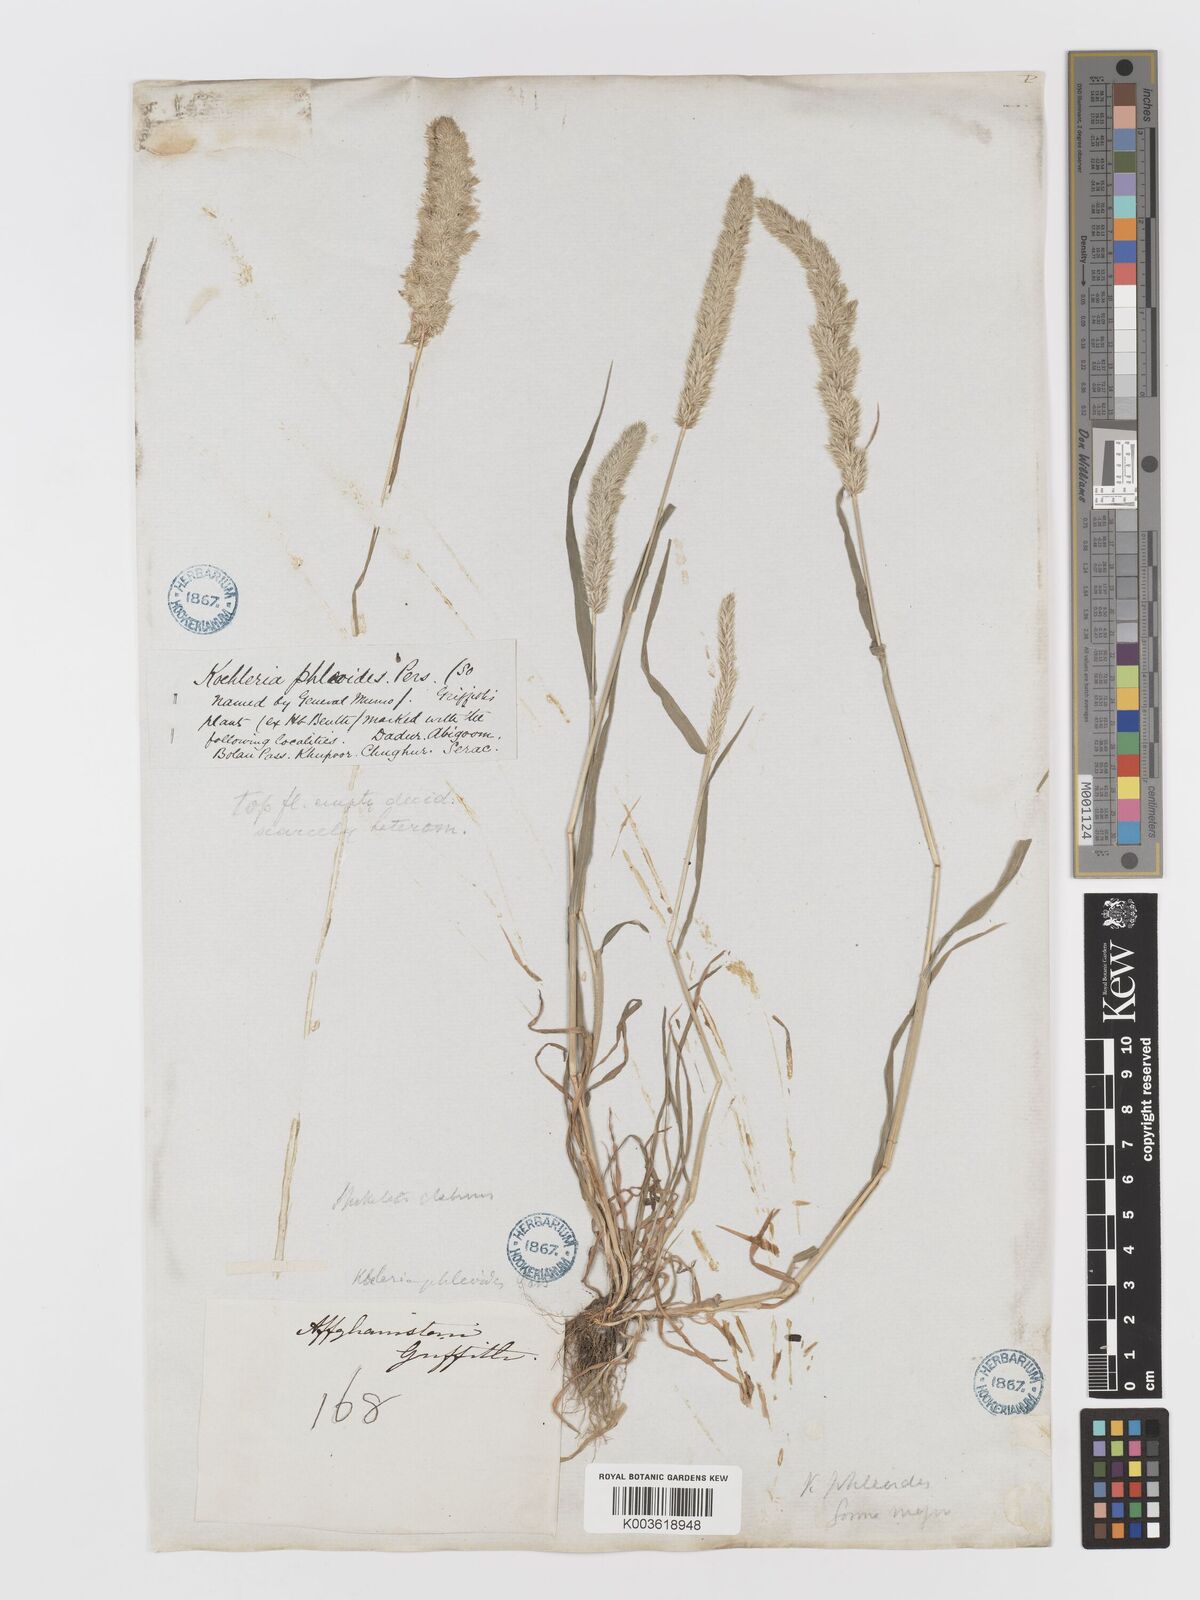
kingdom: Plantae
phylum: Tracheophyta
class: Liliopsida
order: Poales
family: Poaceae
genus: Rostraria
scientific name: Rostraria cristata
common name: Mediterranean hair-grass
